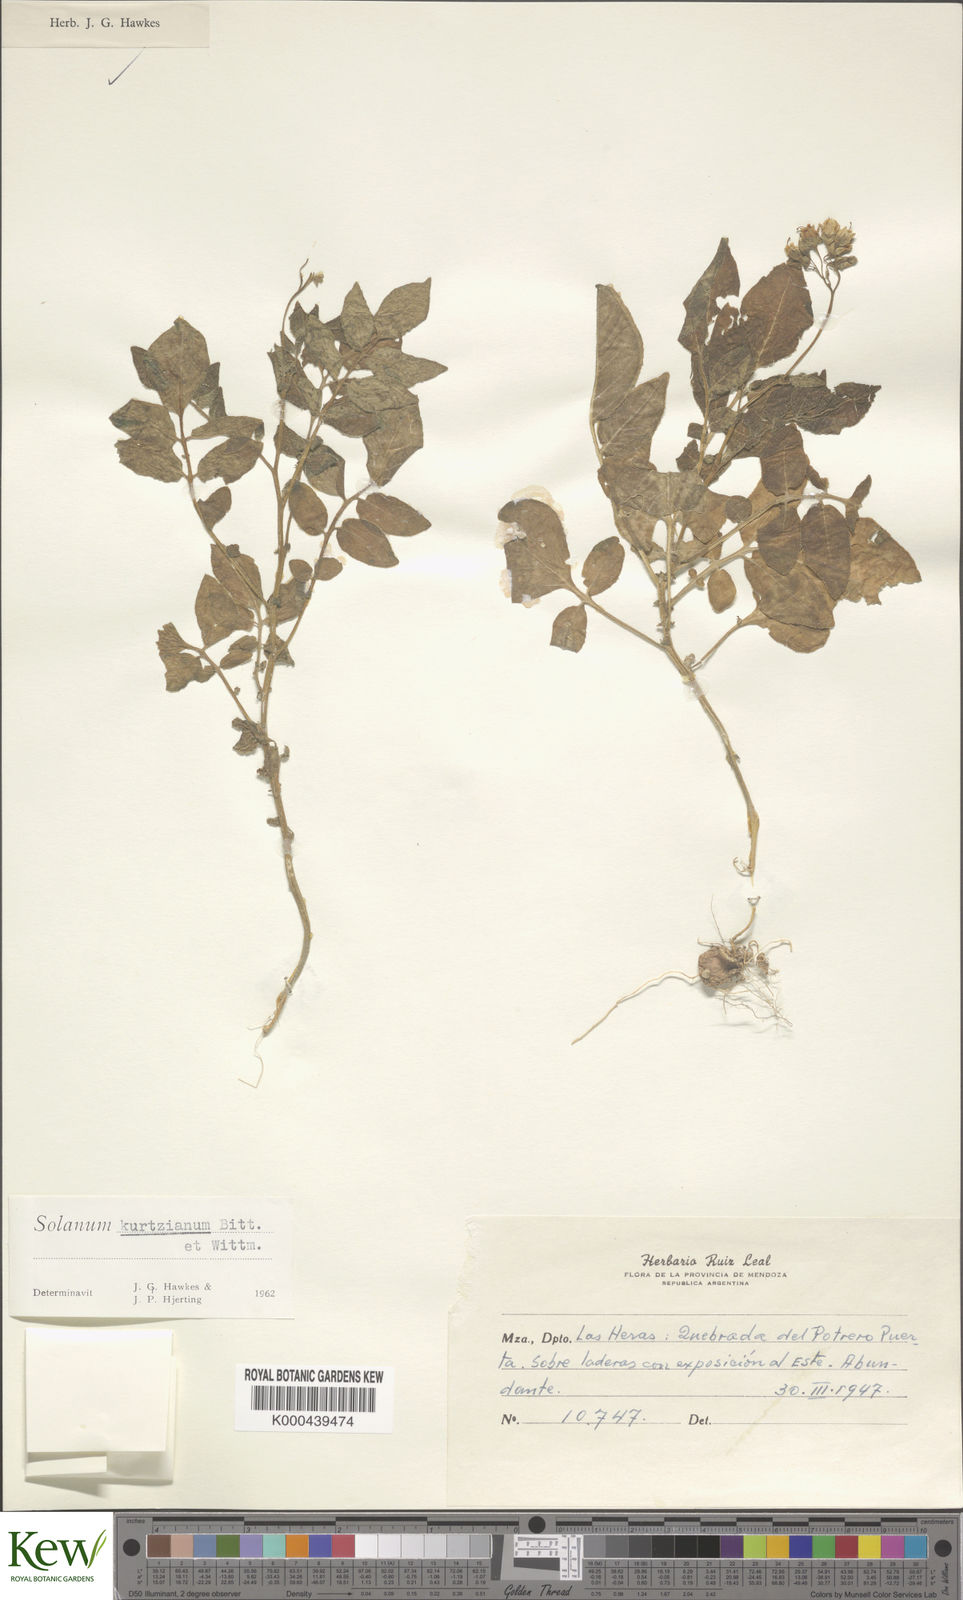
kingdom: Plantae
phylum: Tracheophyta
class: Magnoliopsida
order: Solanales
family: Solanaceae
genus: Solanum
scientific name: Solanum kurtzianum
